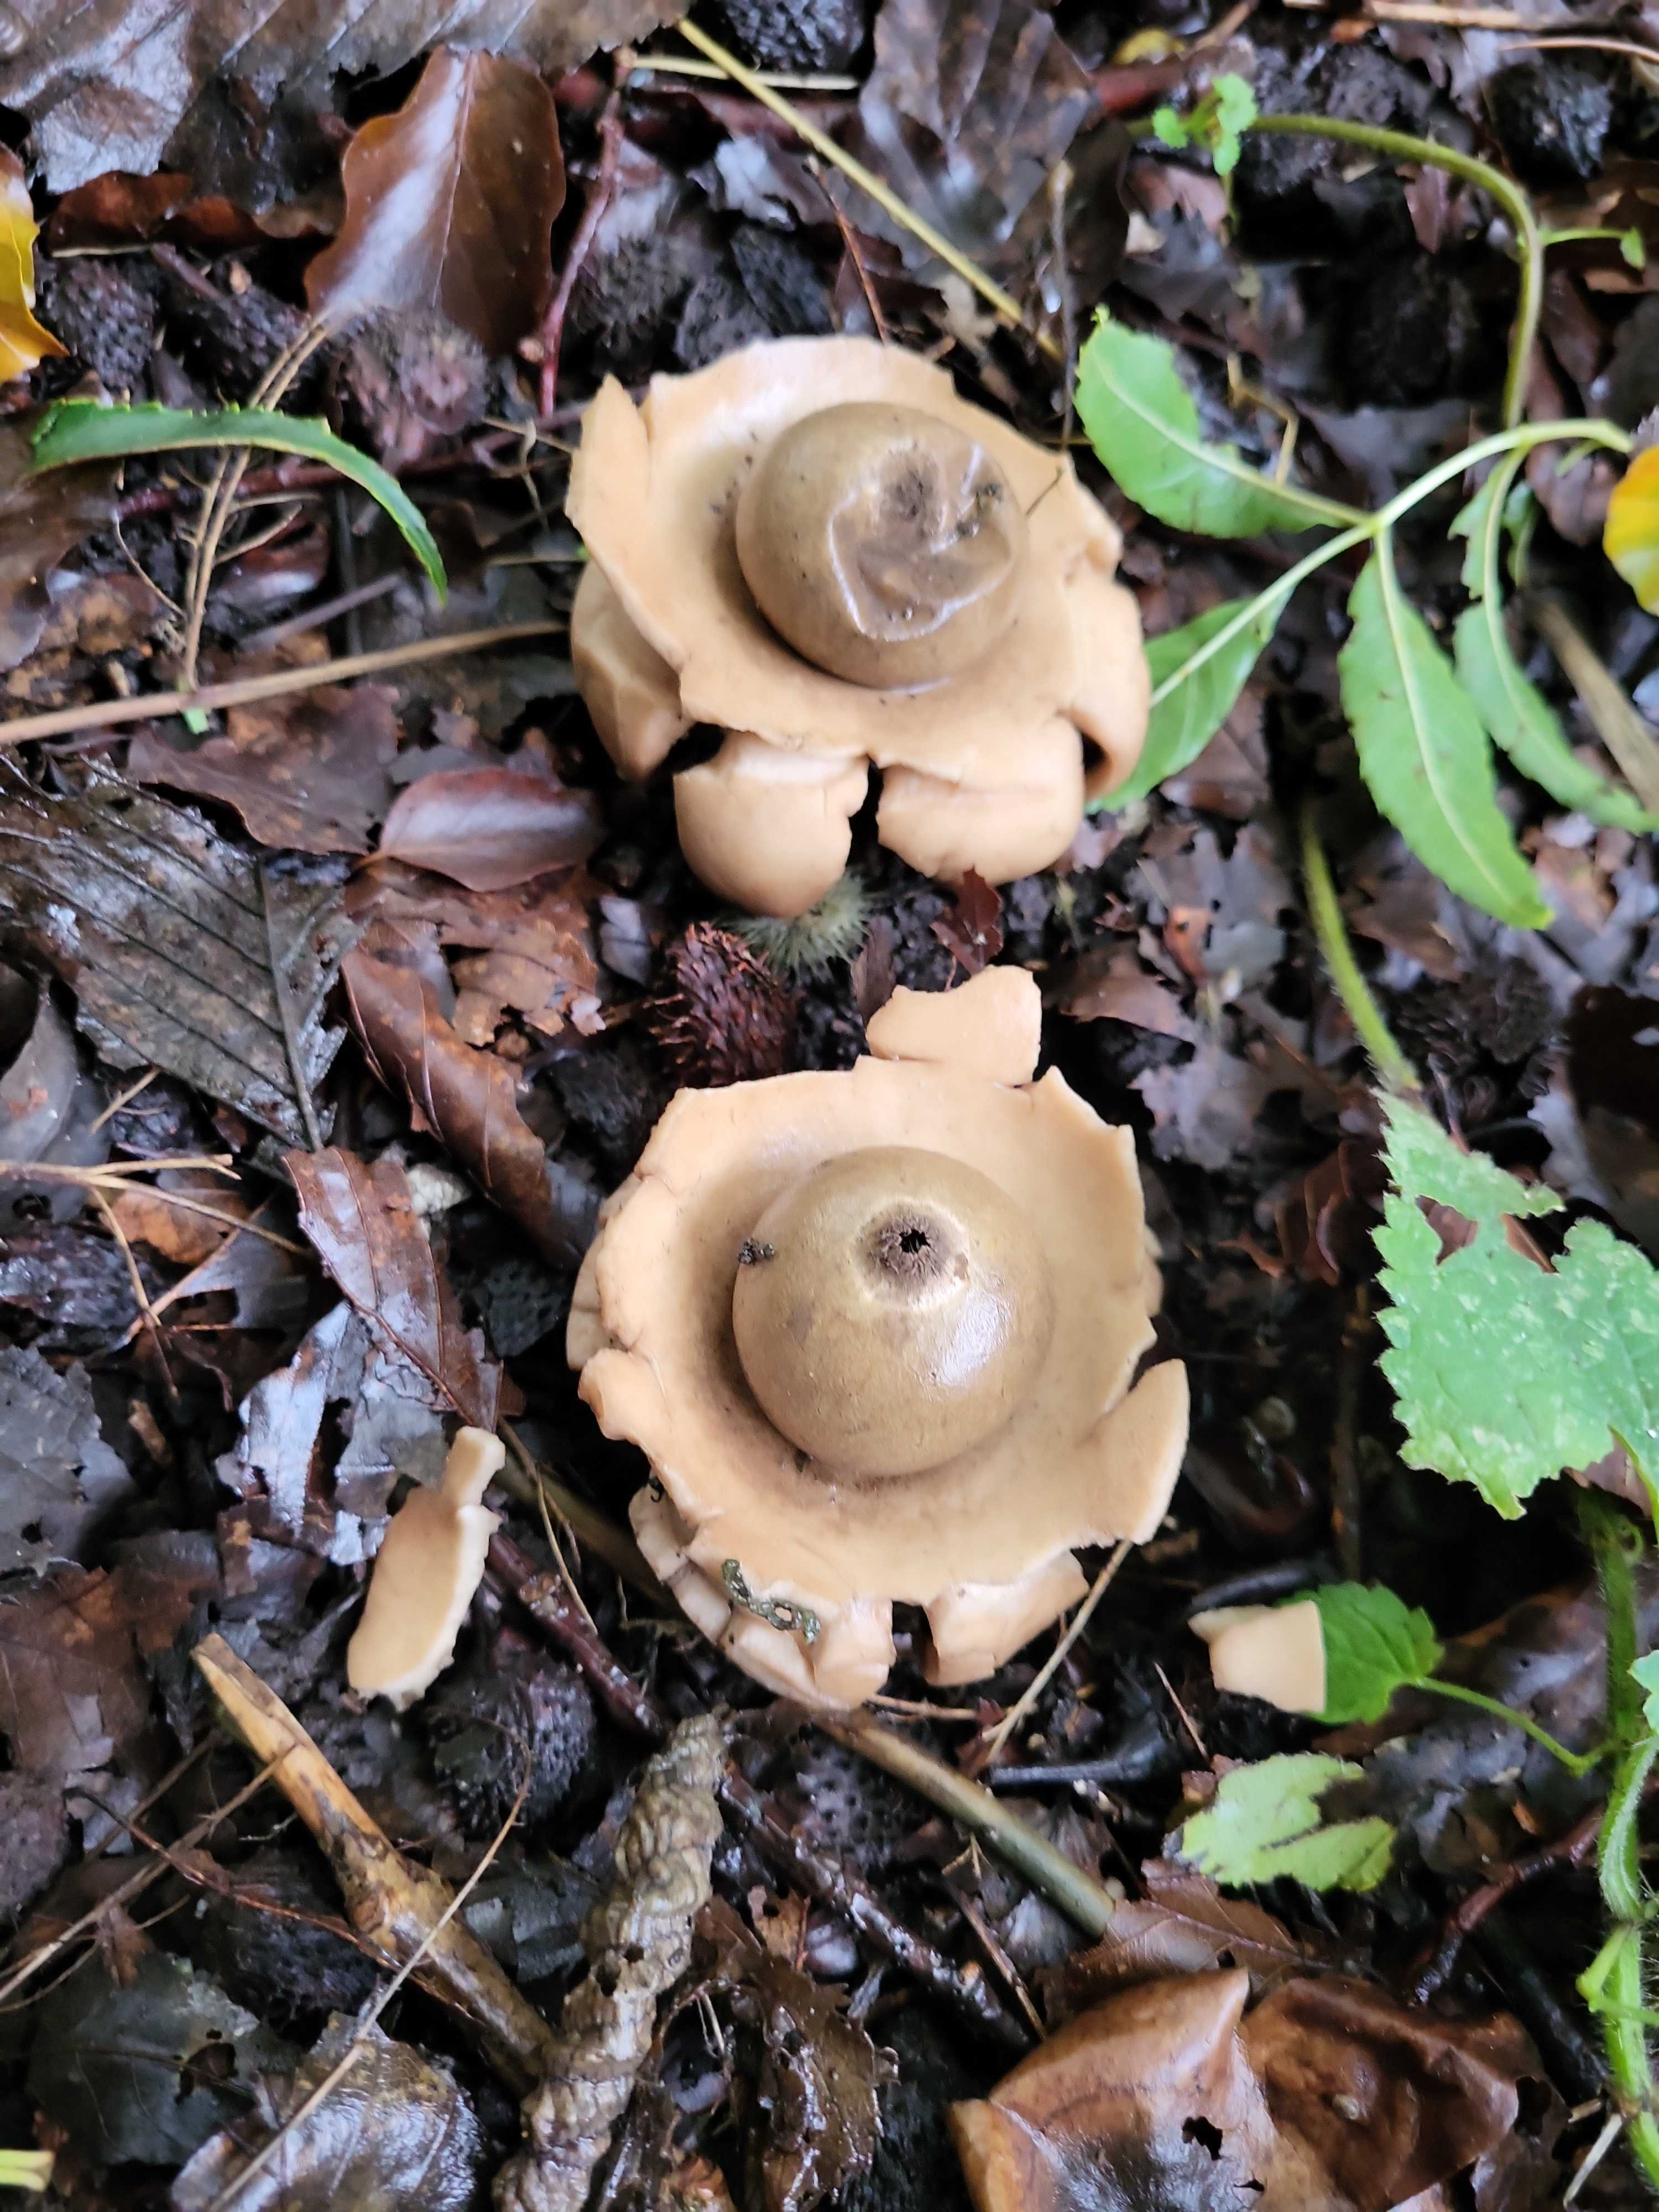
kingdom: Fungi
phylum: Basidiomycota
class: Agaricomycetes
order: Geastrales
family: Geastraceae
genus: Geastrum
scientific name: Geastrum michelianum
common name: kødet stjernebold
